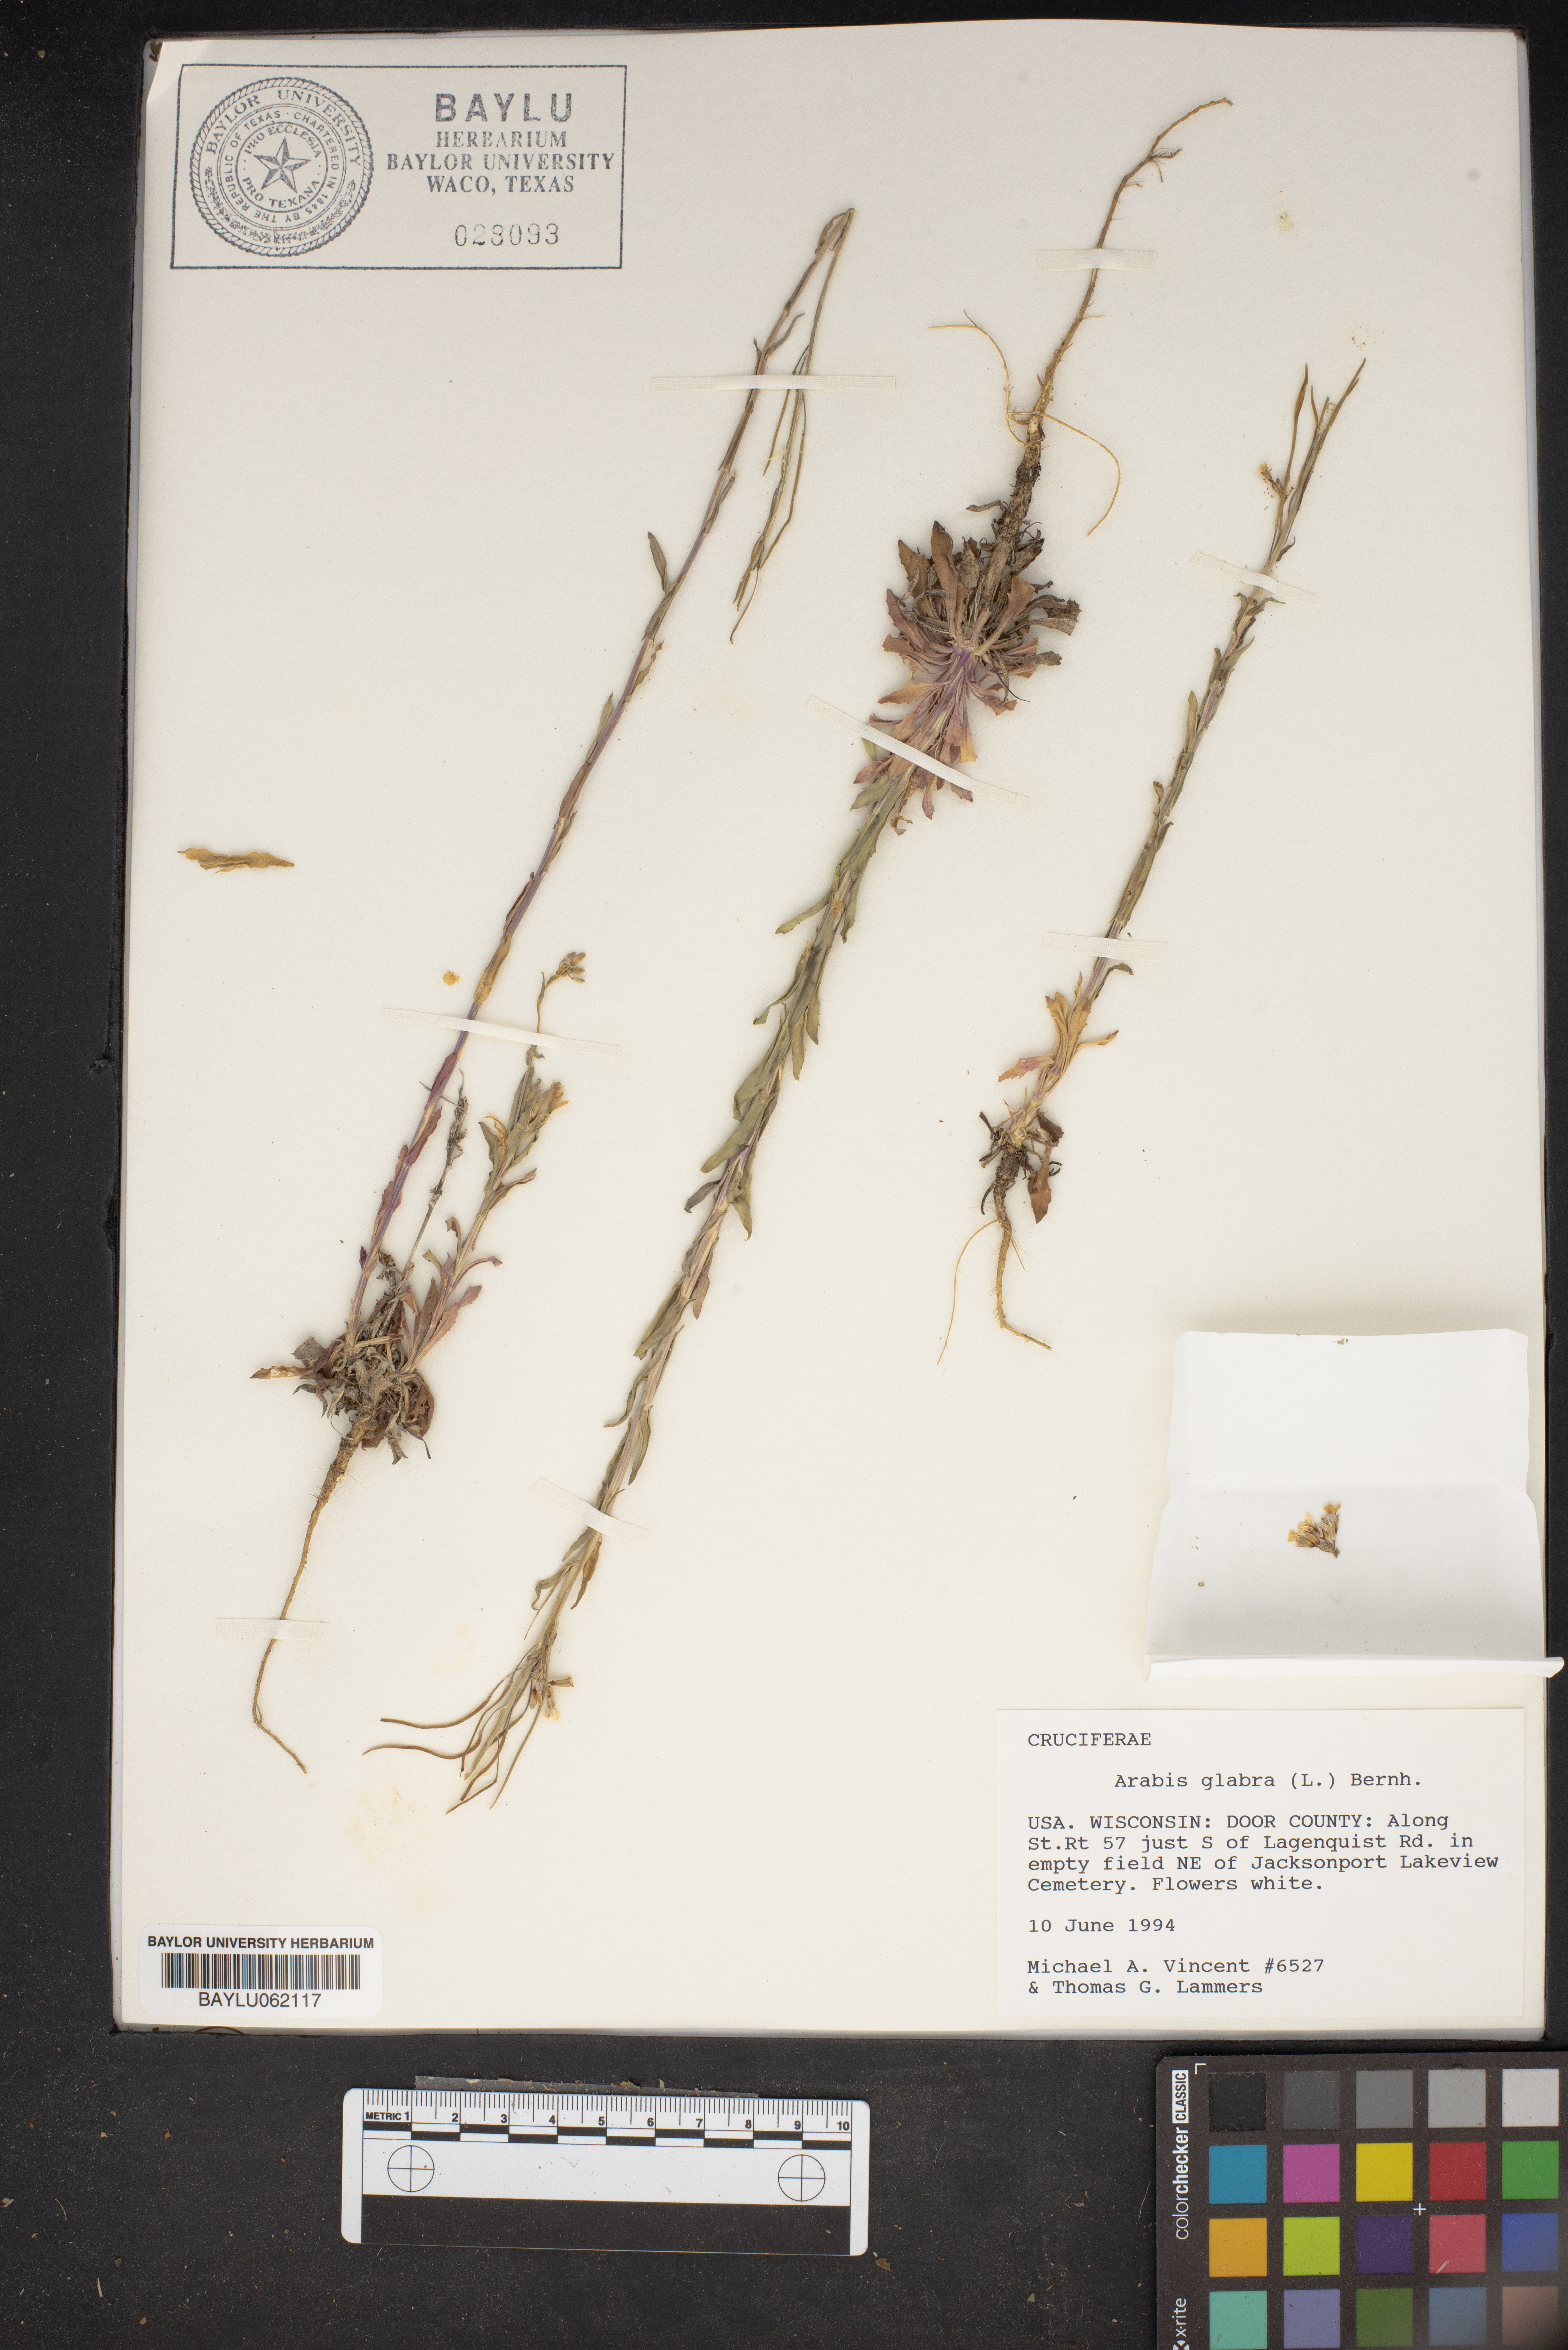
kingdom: Plantae
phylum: Tracheophyta
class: Magnoliopsida
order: Brassicales
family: Brassicaceae
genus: Turritis
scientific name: Turritis glabra
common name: Tower rockcress
